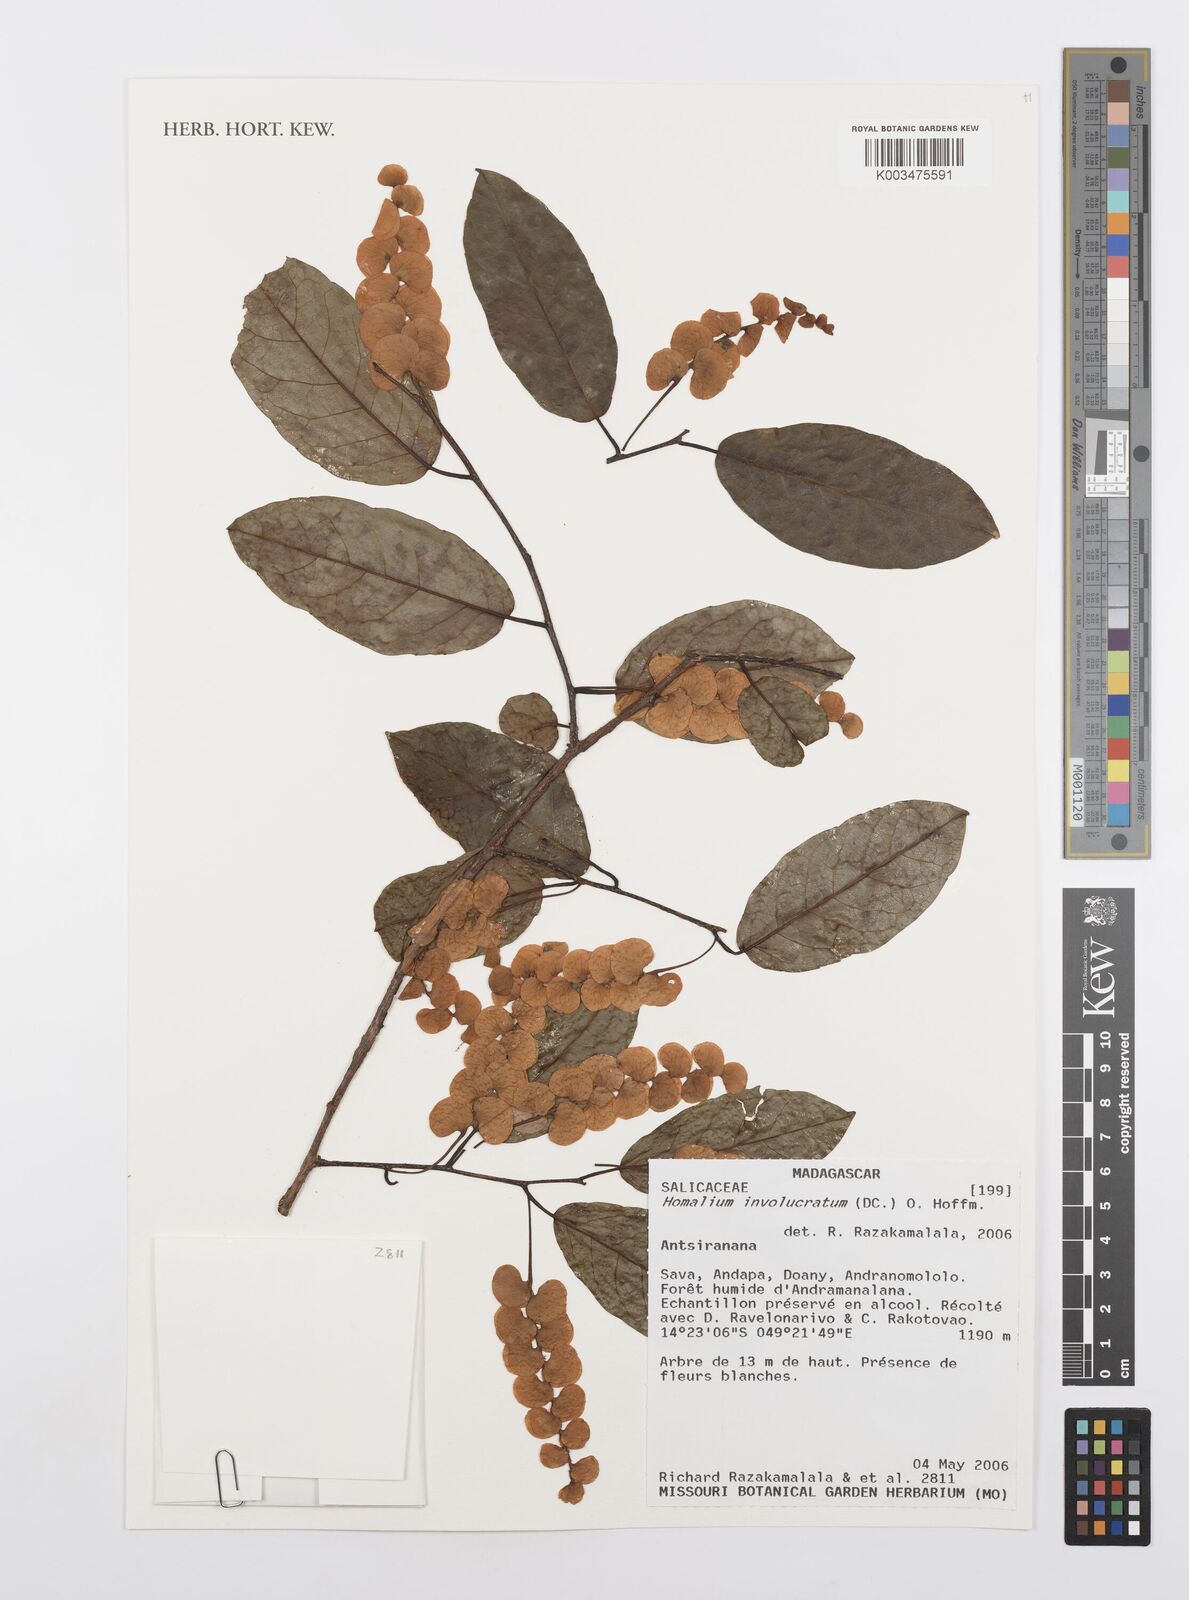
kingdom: Plantae
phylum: Tracheophyta
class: Magnoliopsida
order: Malpighiales
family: Salicaceae
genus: Homalium
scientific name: Homalium involucratum
